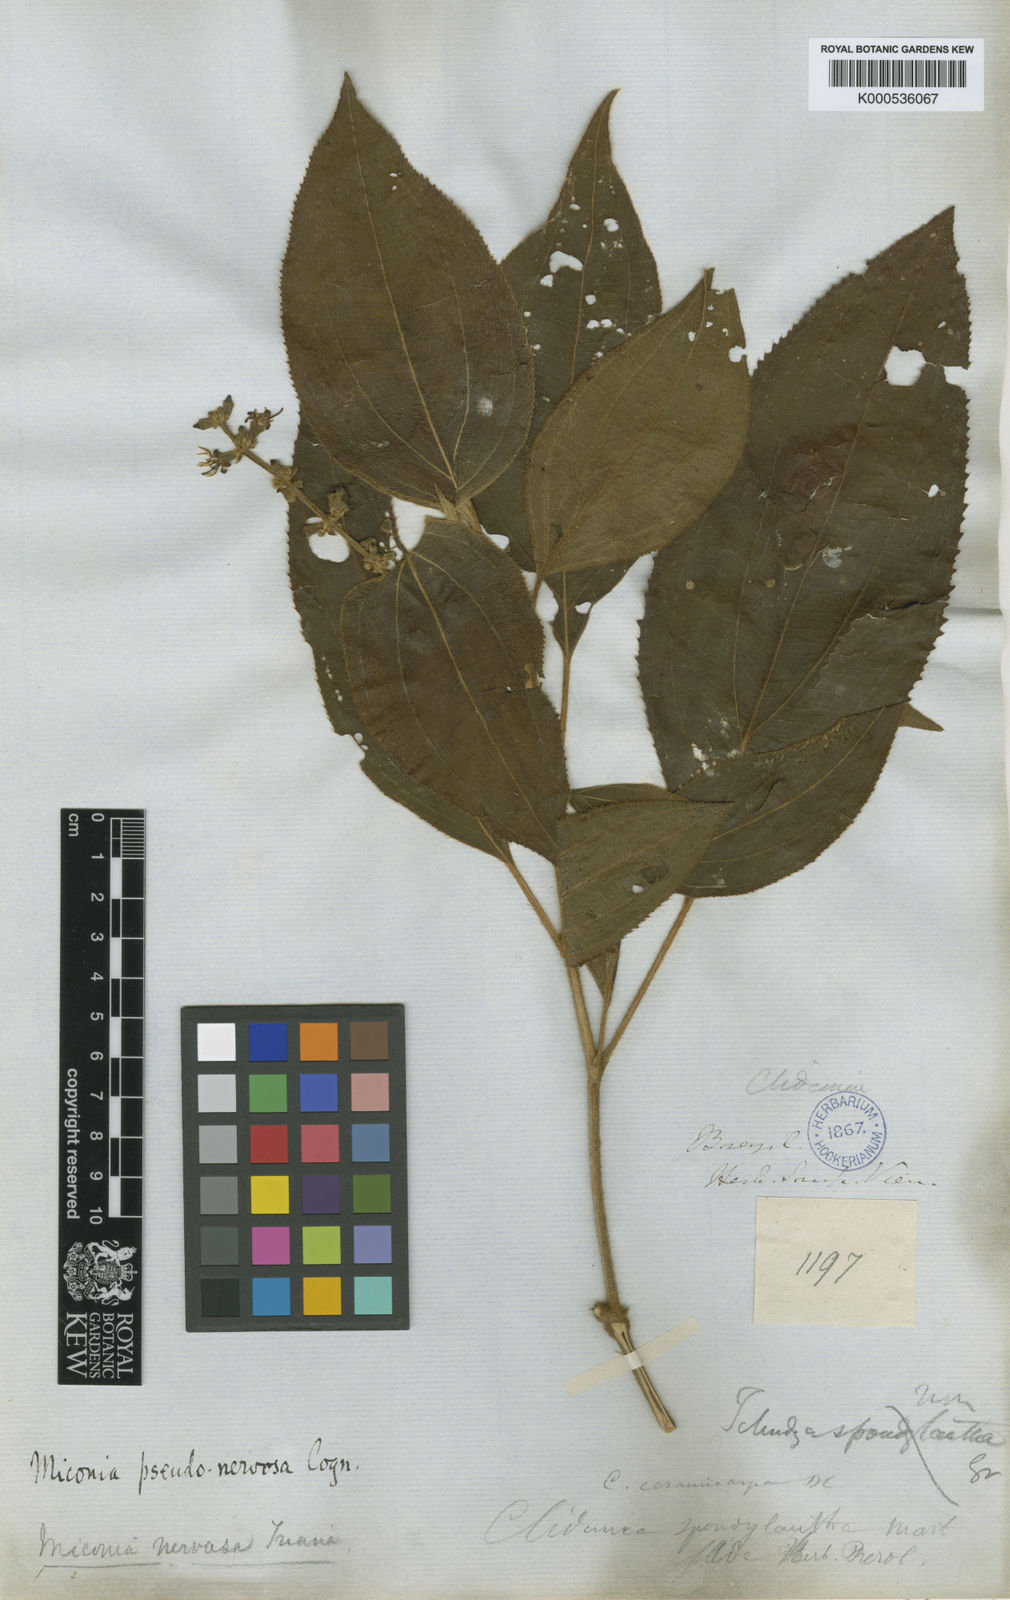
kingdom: Plantae
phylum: Tracheophyta
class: Magnoliopsida
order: Myrtales
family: Melastomataceae
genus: Miconia
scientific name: Miconia pseudonervosa
